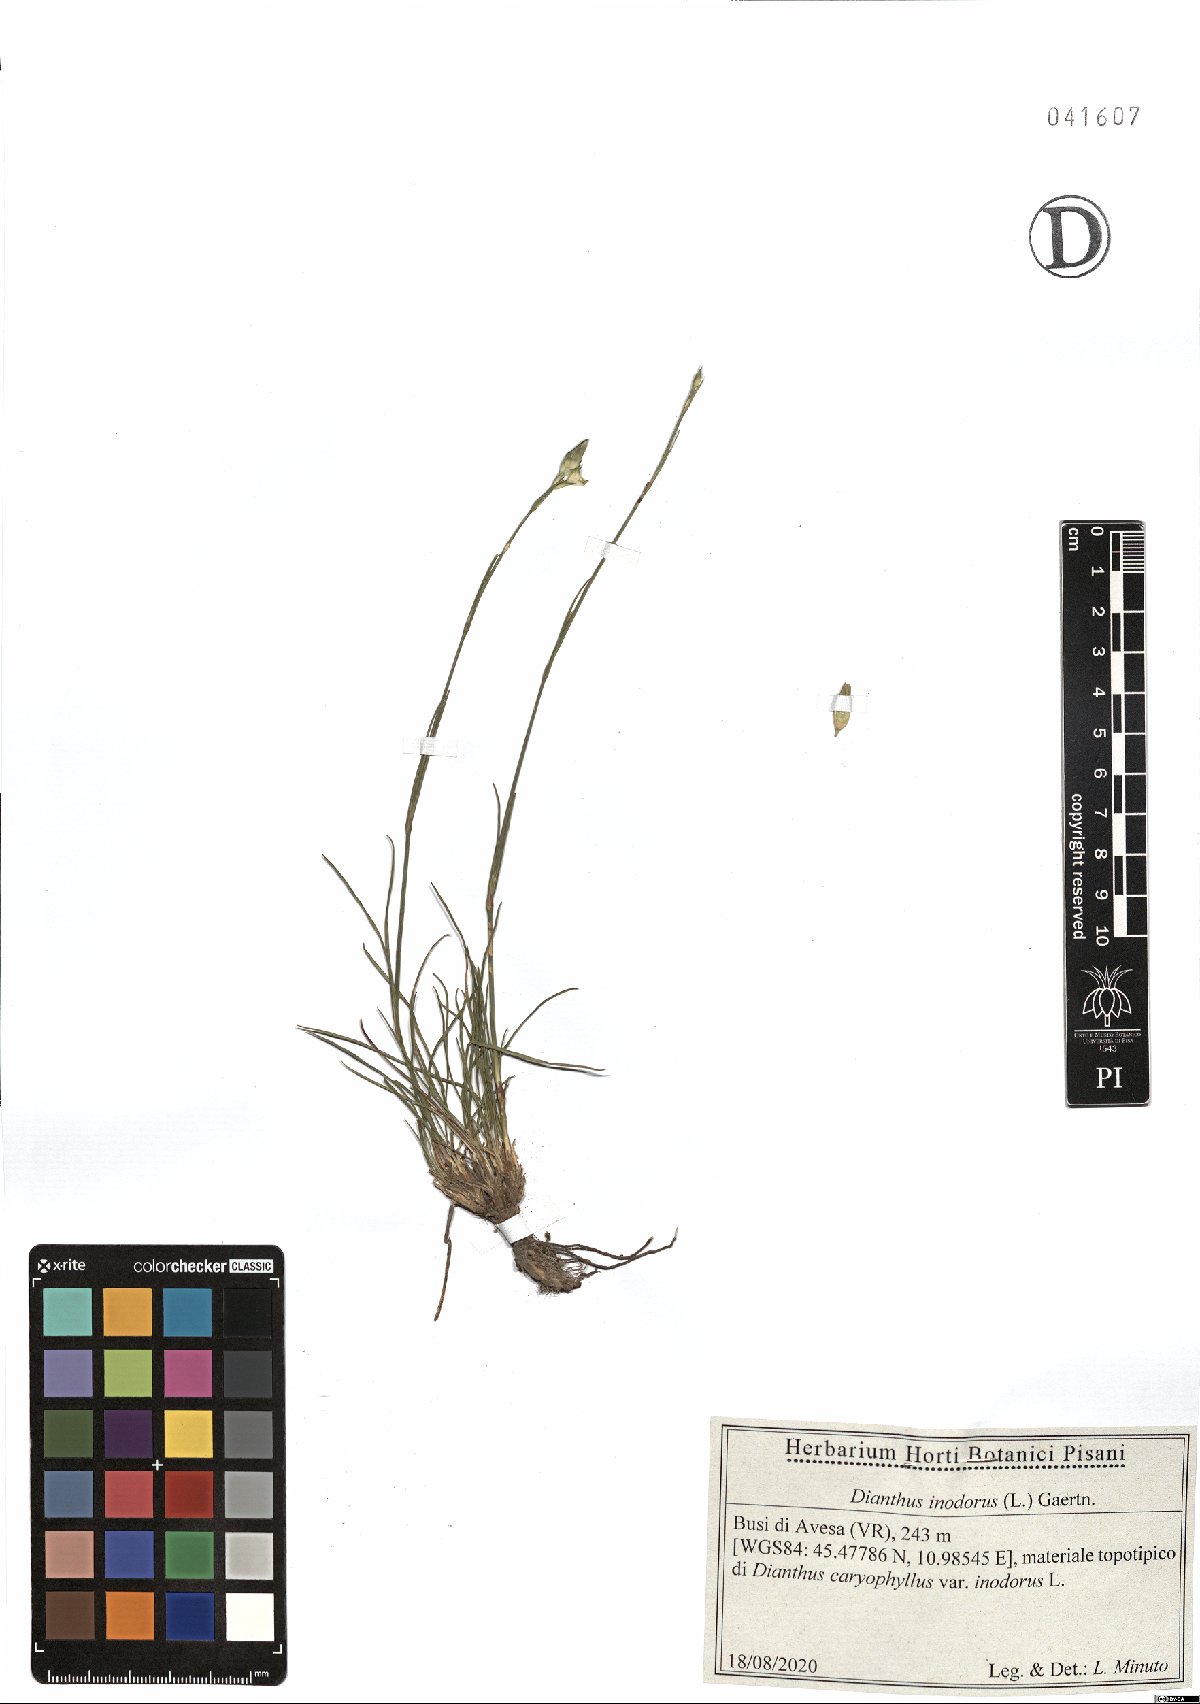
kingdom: Plantae
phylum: Tracheophyta
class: Magnoliopsida
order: Caryophyllales
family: Caryophyllaceae
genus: Dianthus
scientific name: Dianthus sylvestris
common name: Wood pink
